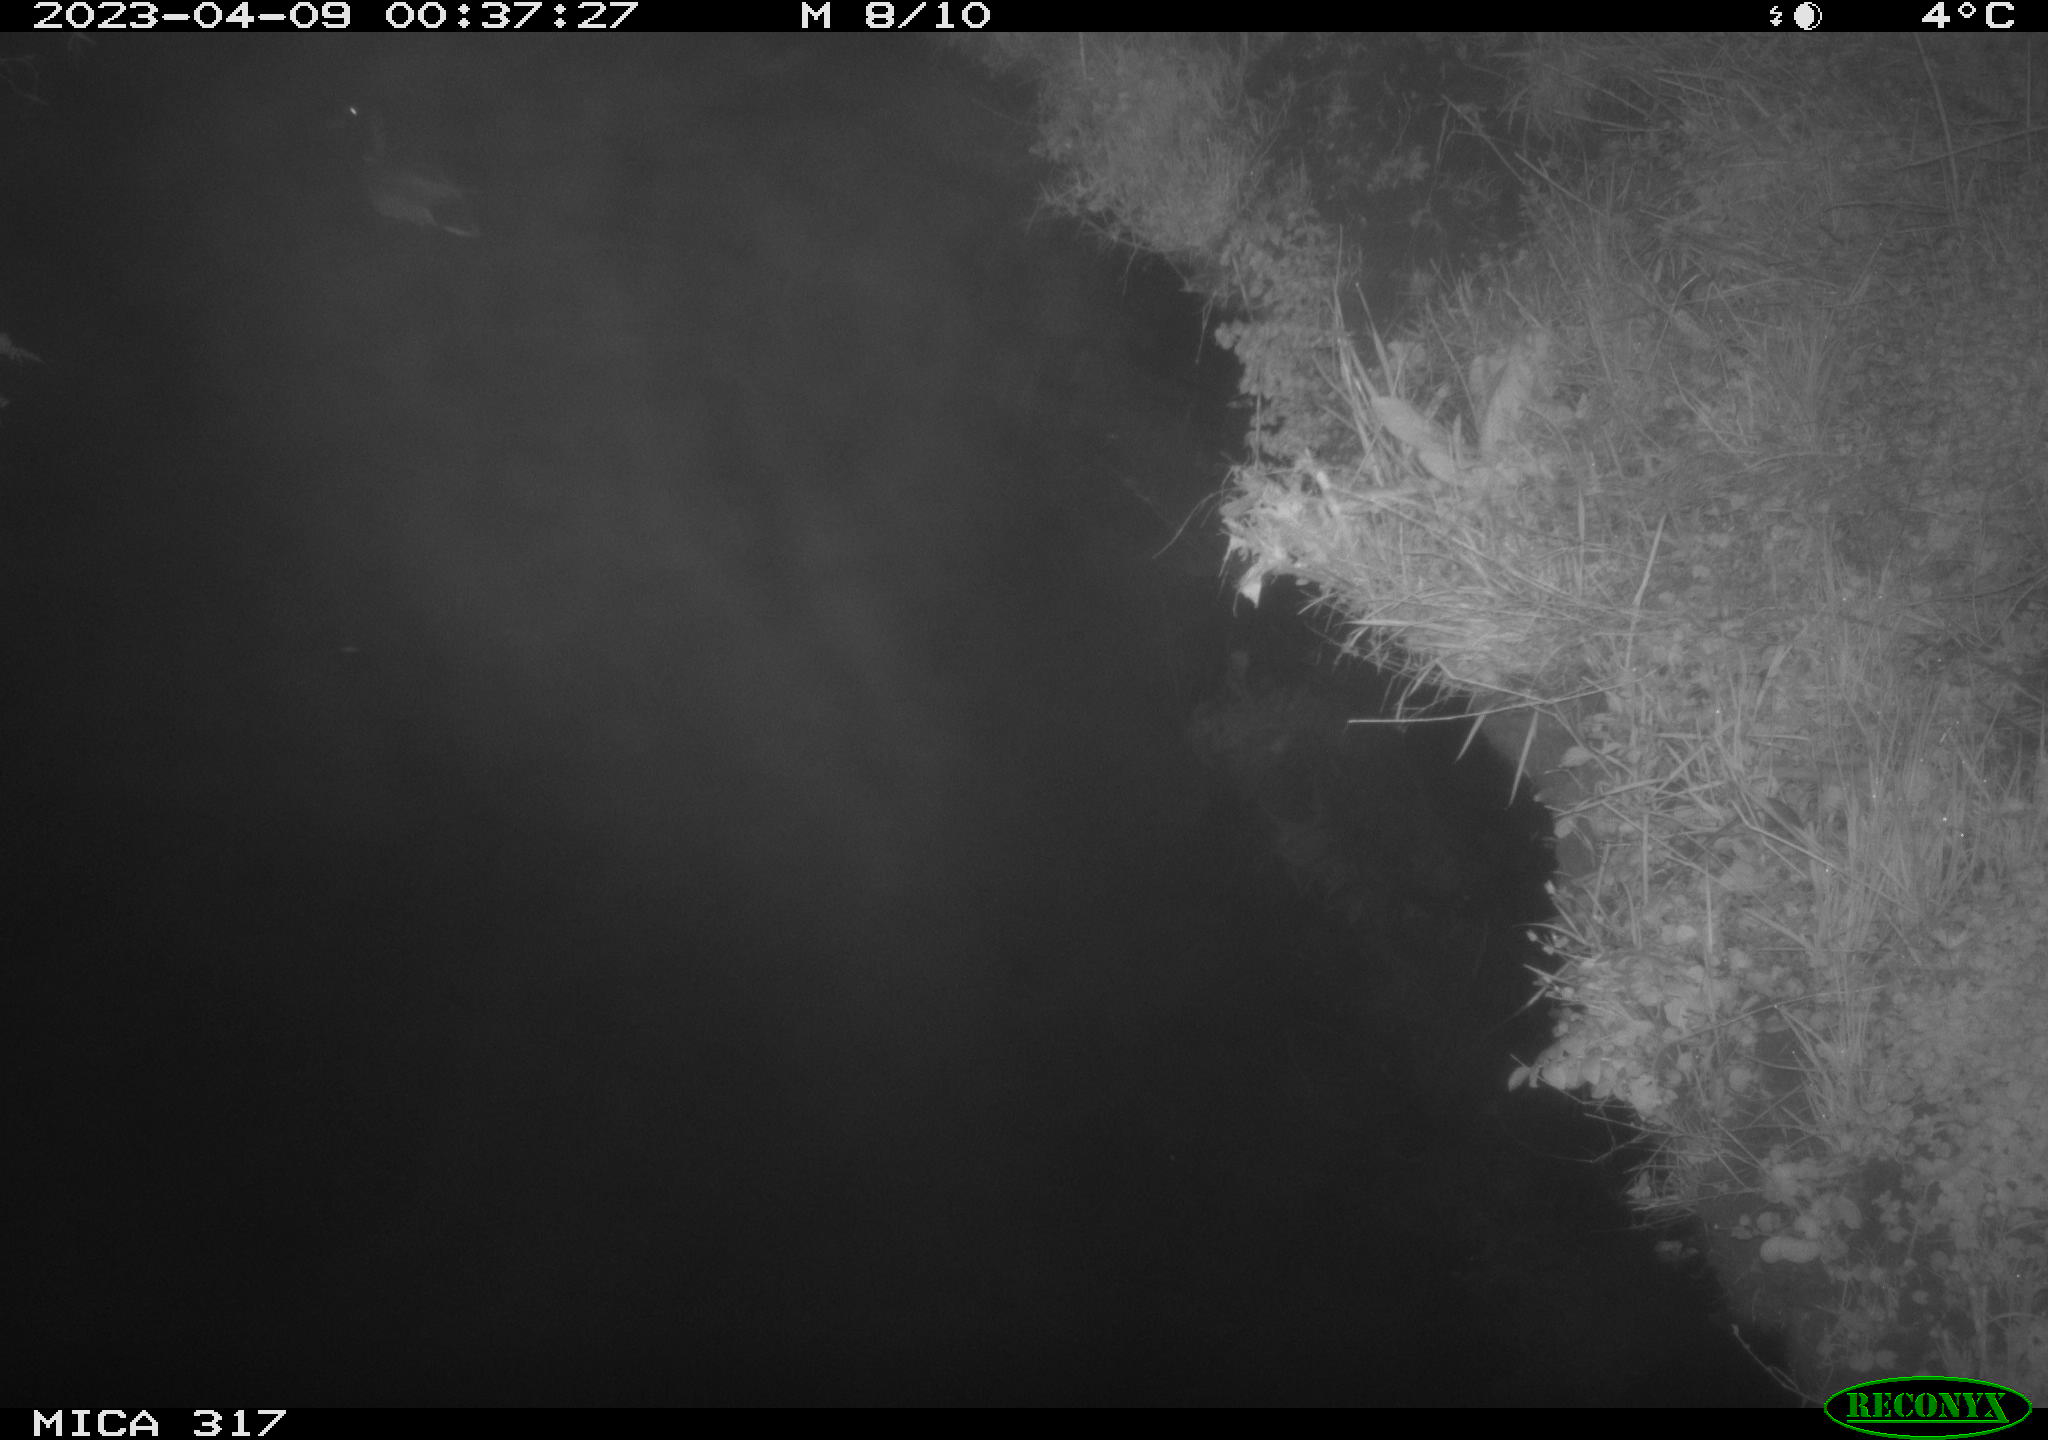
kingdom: Animalia
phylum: Chordata
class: Aves
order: Anseriformes
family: Anatidae
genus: Anas
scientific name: Anas
